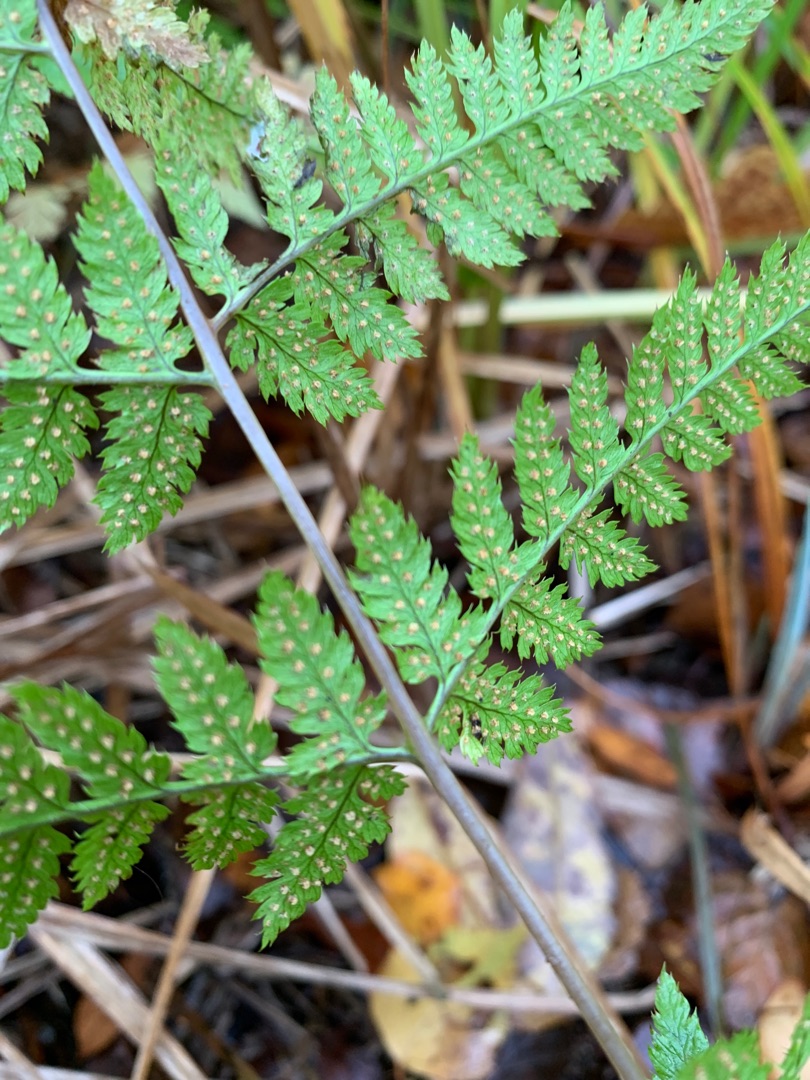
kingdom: Plantae
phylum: Tracheophyta
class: Polypodiopsida
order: Polypodiales
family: Dryopteridaceae
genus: Dryopteris
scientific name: Dryopteris carthusiana
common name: Smalbladet mangeløv
